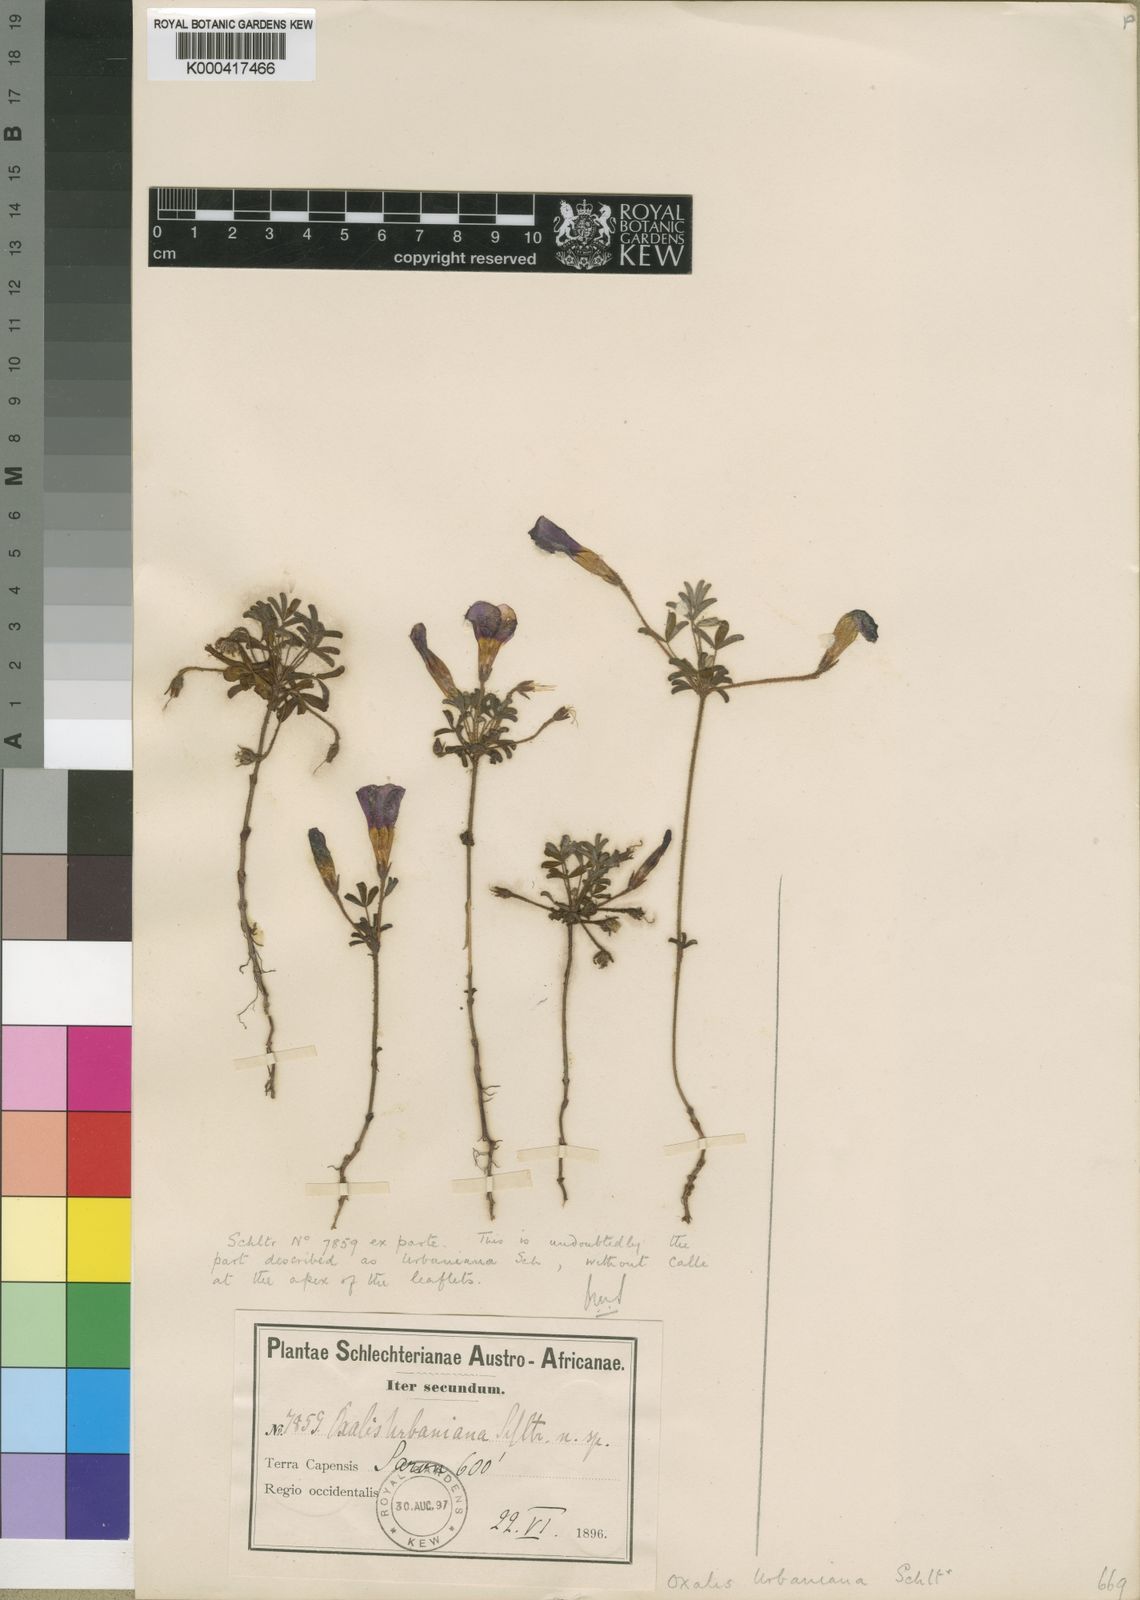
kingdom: Plantae
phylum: Tracheophyta
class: Magnoliopsida
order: Oxalidales
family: Oxalidaceae
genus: Oxalis
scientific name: Oxalis goniorhiza
